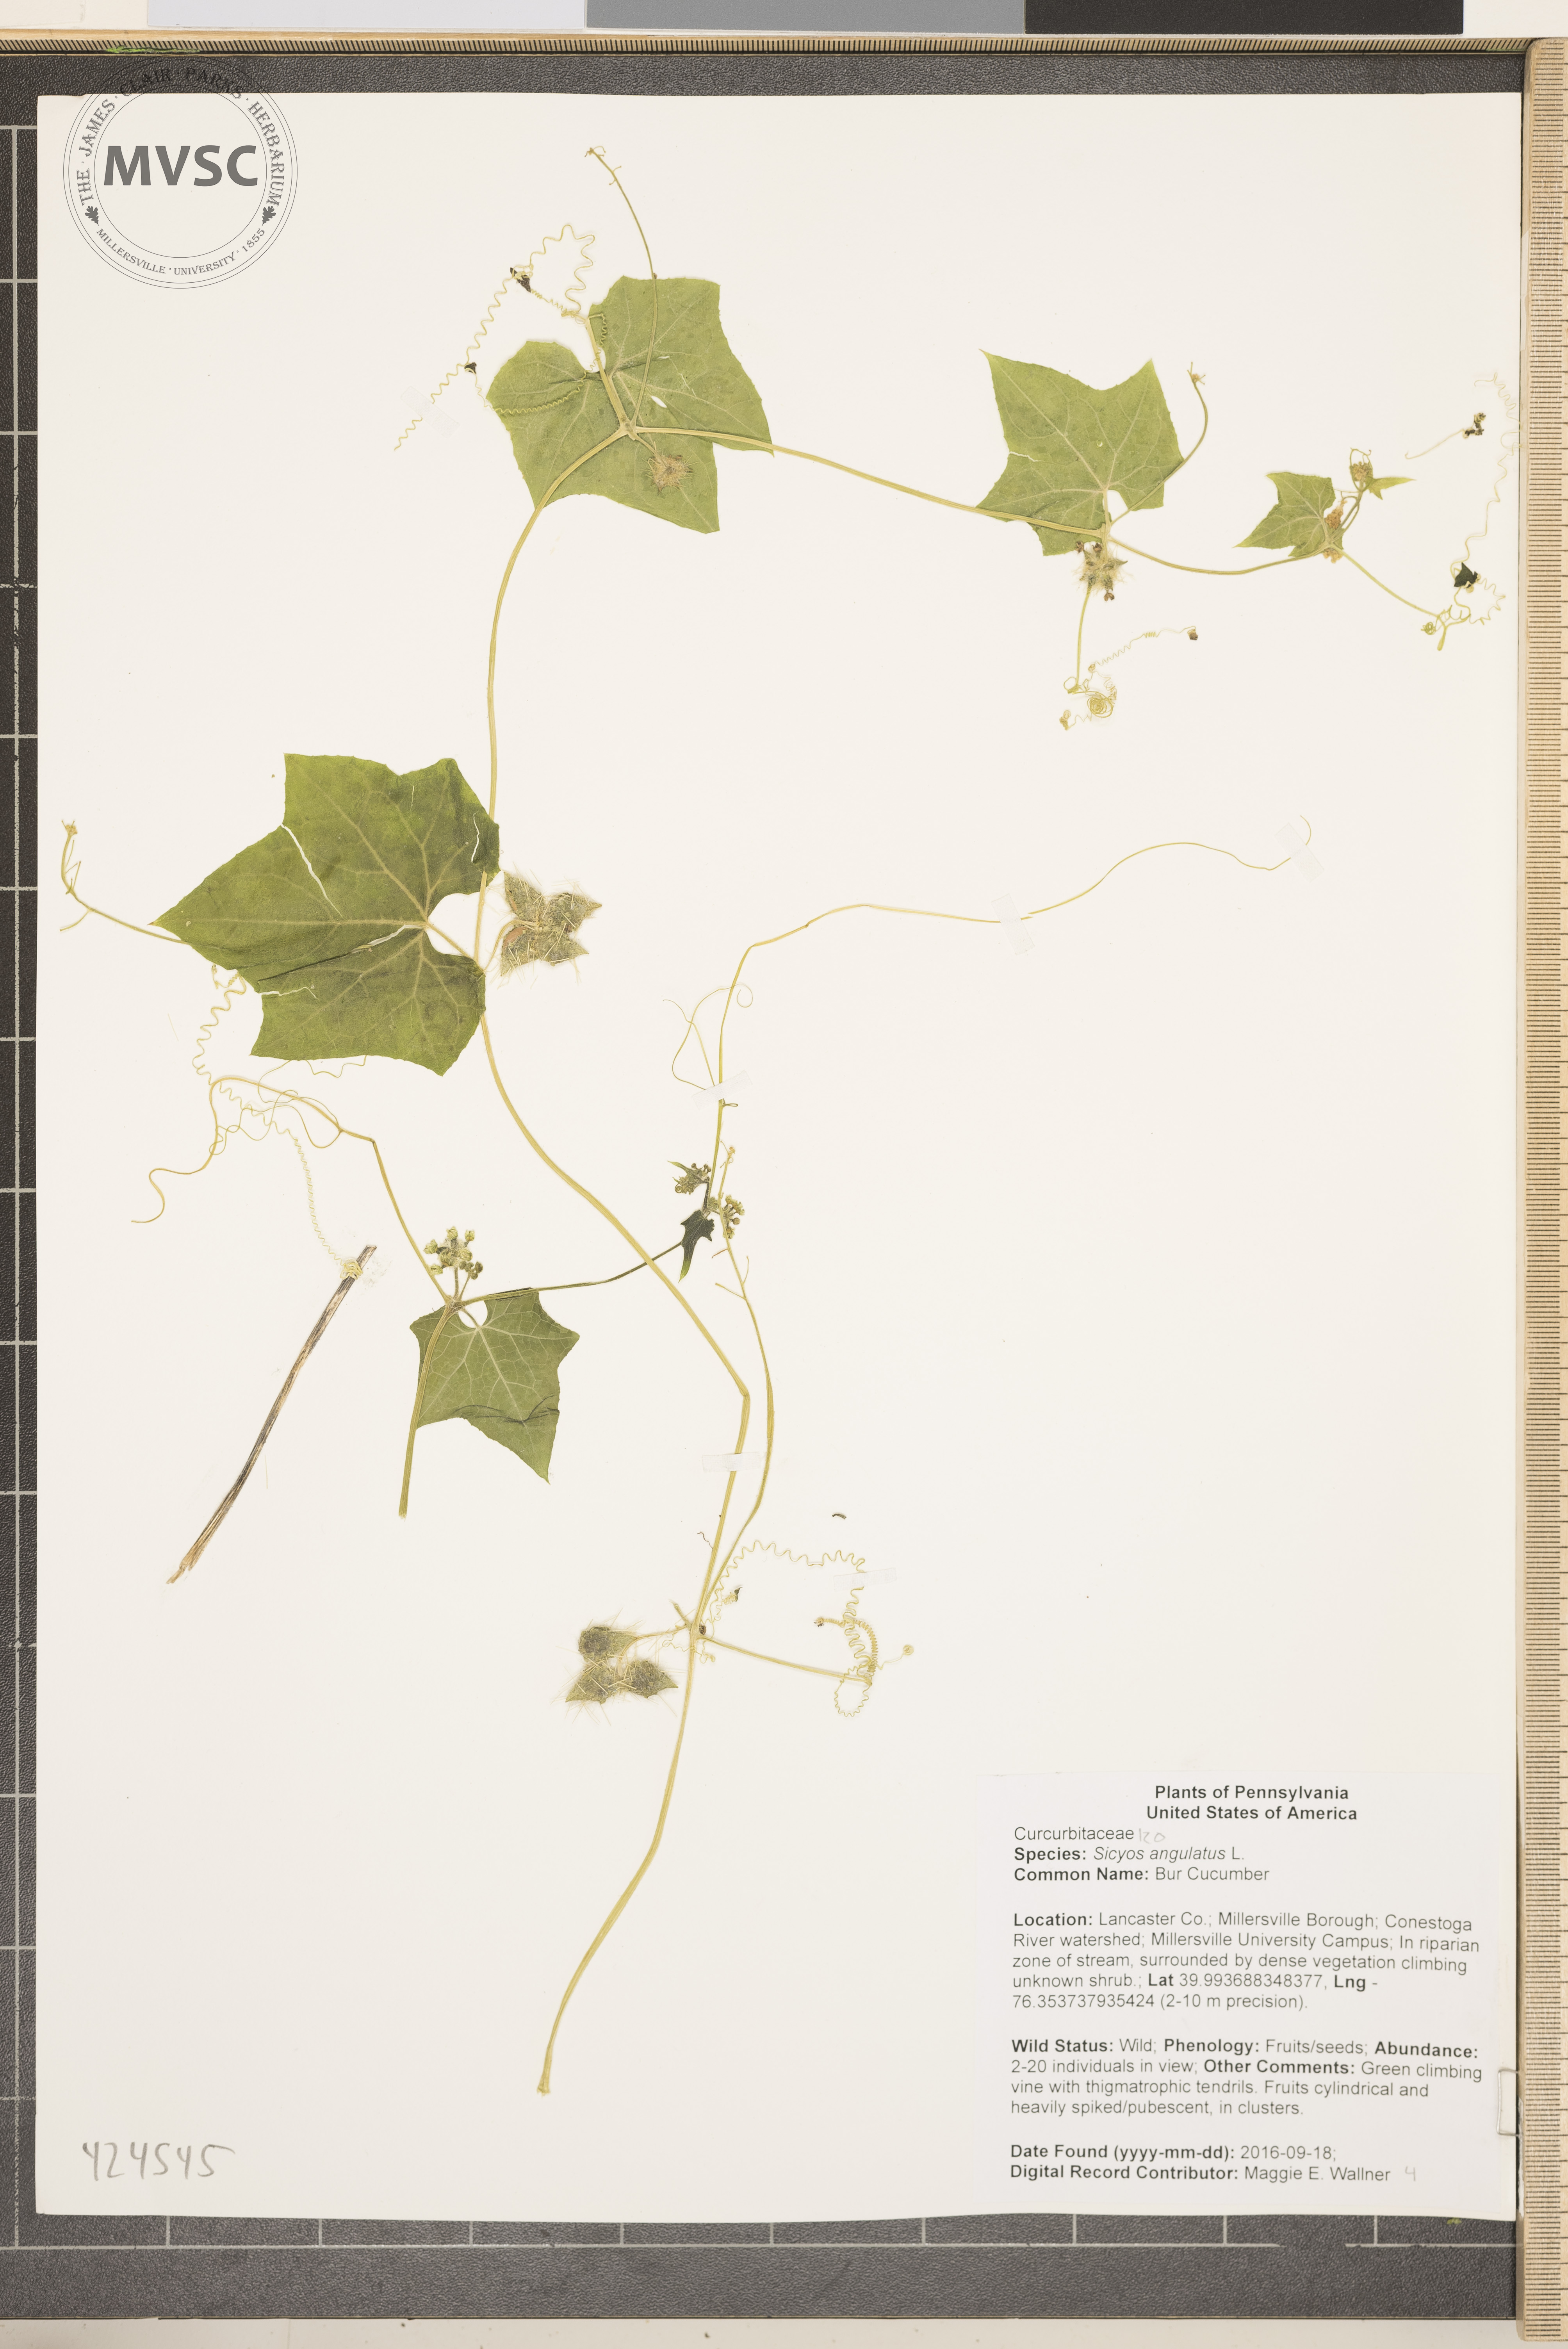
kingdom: Plantae
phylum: Tracheophyta
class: Magnoliopsida
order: Cucurbitales
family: Cucurbitaceae
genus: Sicyos
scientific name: Sicyos angulatus
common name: Bur Cucumber
